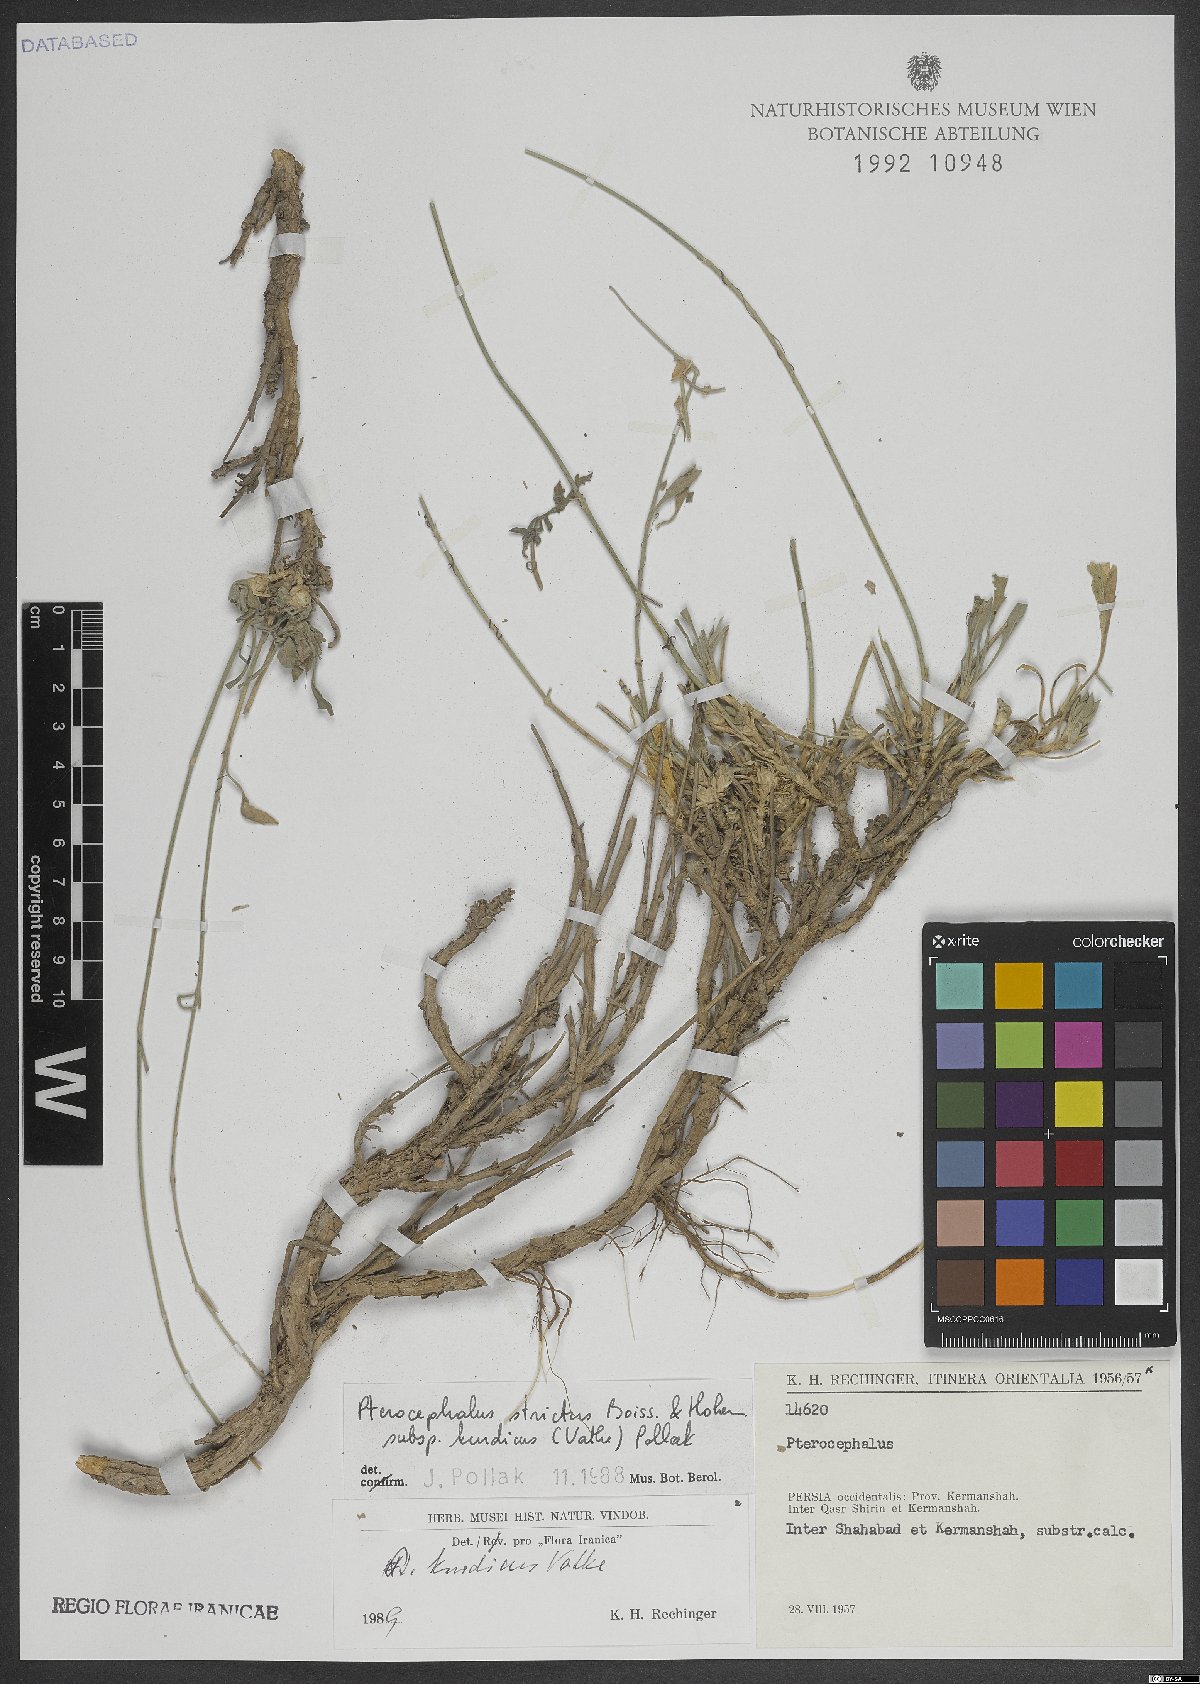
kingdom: Plantae
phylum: Tracheophyta
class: Magnoliopsida
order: Dipsacales
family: Caprifoliaceae
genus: Pterocephalus
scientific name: Pterocephalus kurdicus
